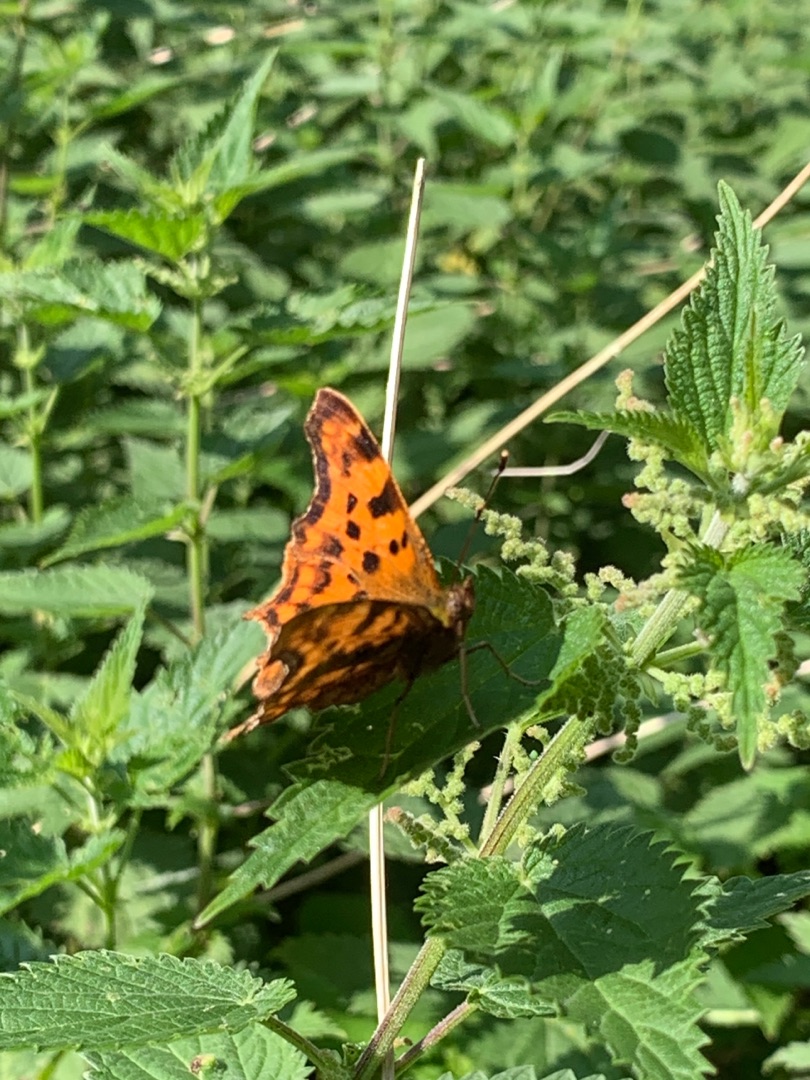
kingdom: Animalia
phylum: Arthropoda
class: Insecta
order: Lepidoptera
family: Nymphalidae
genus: Polygonia
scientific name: Polygonia c-album
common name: Det hvide C
